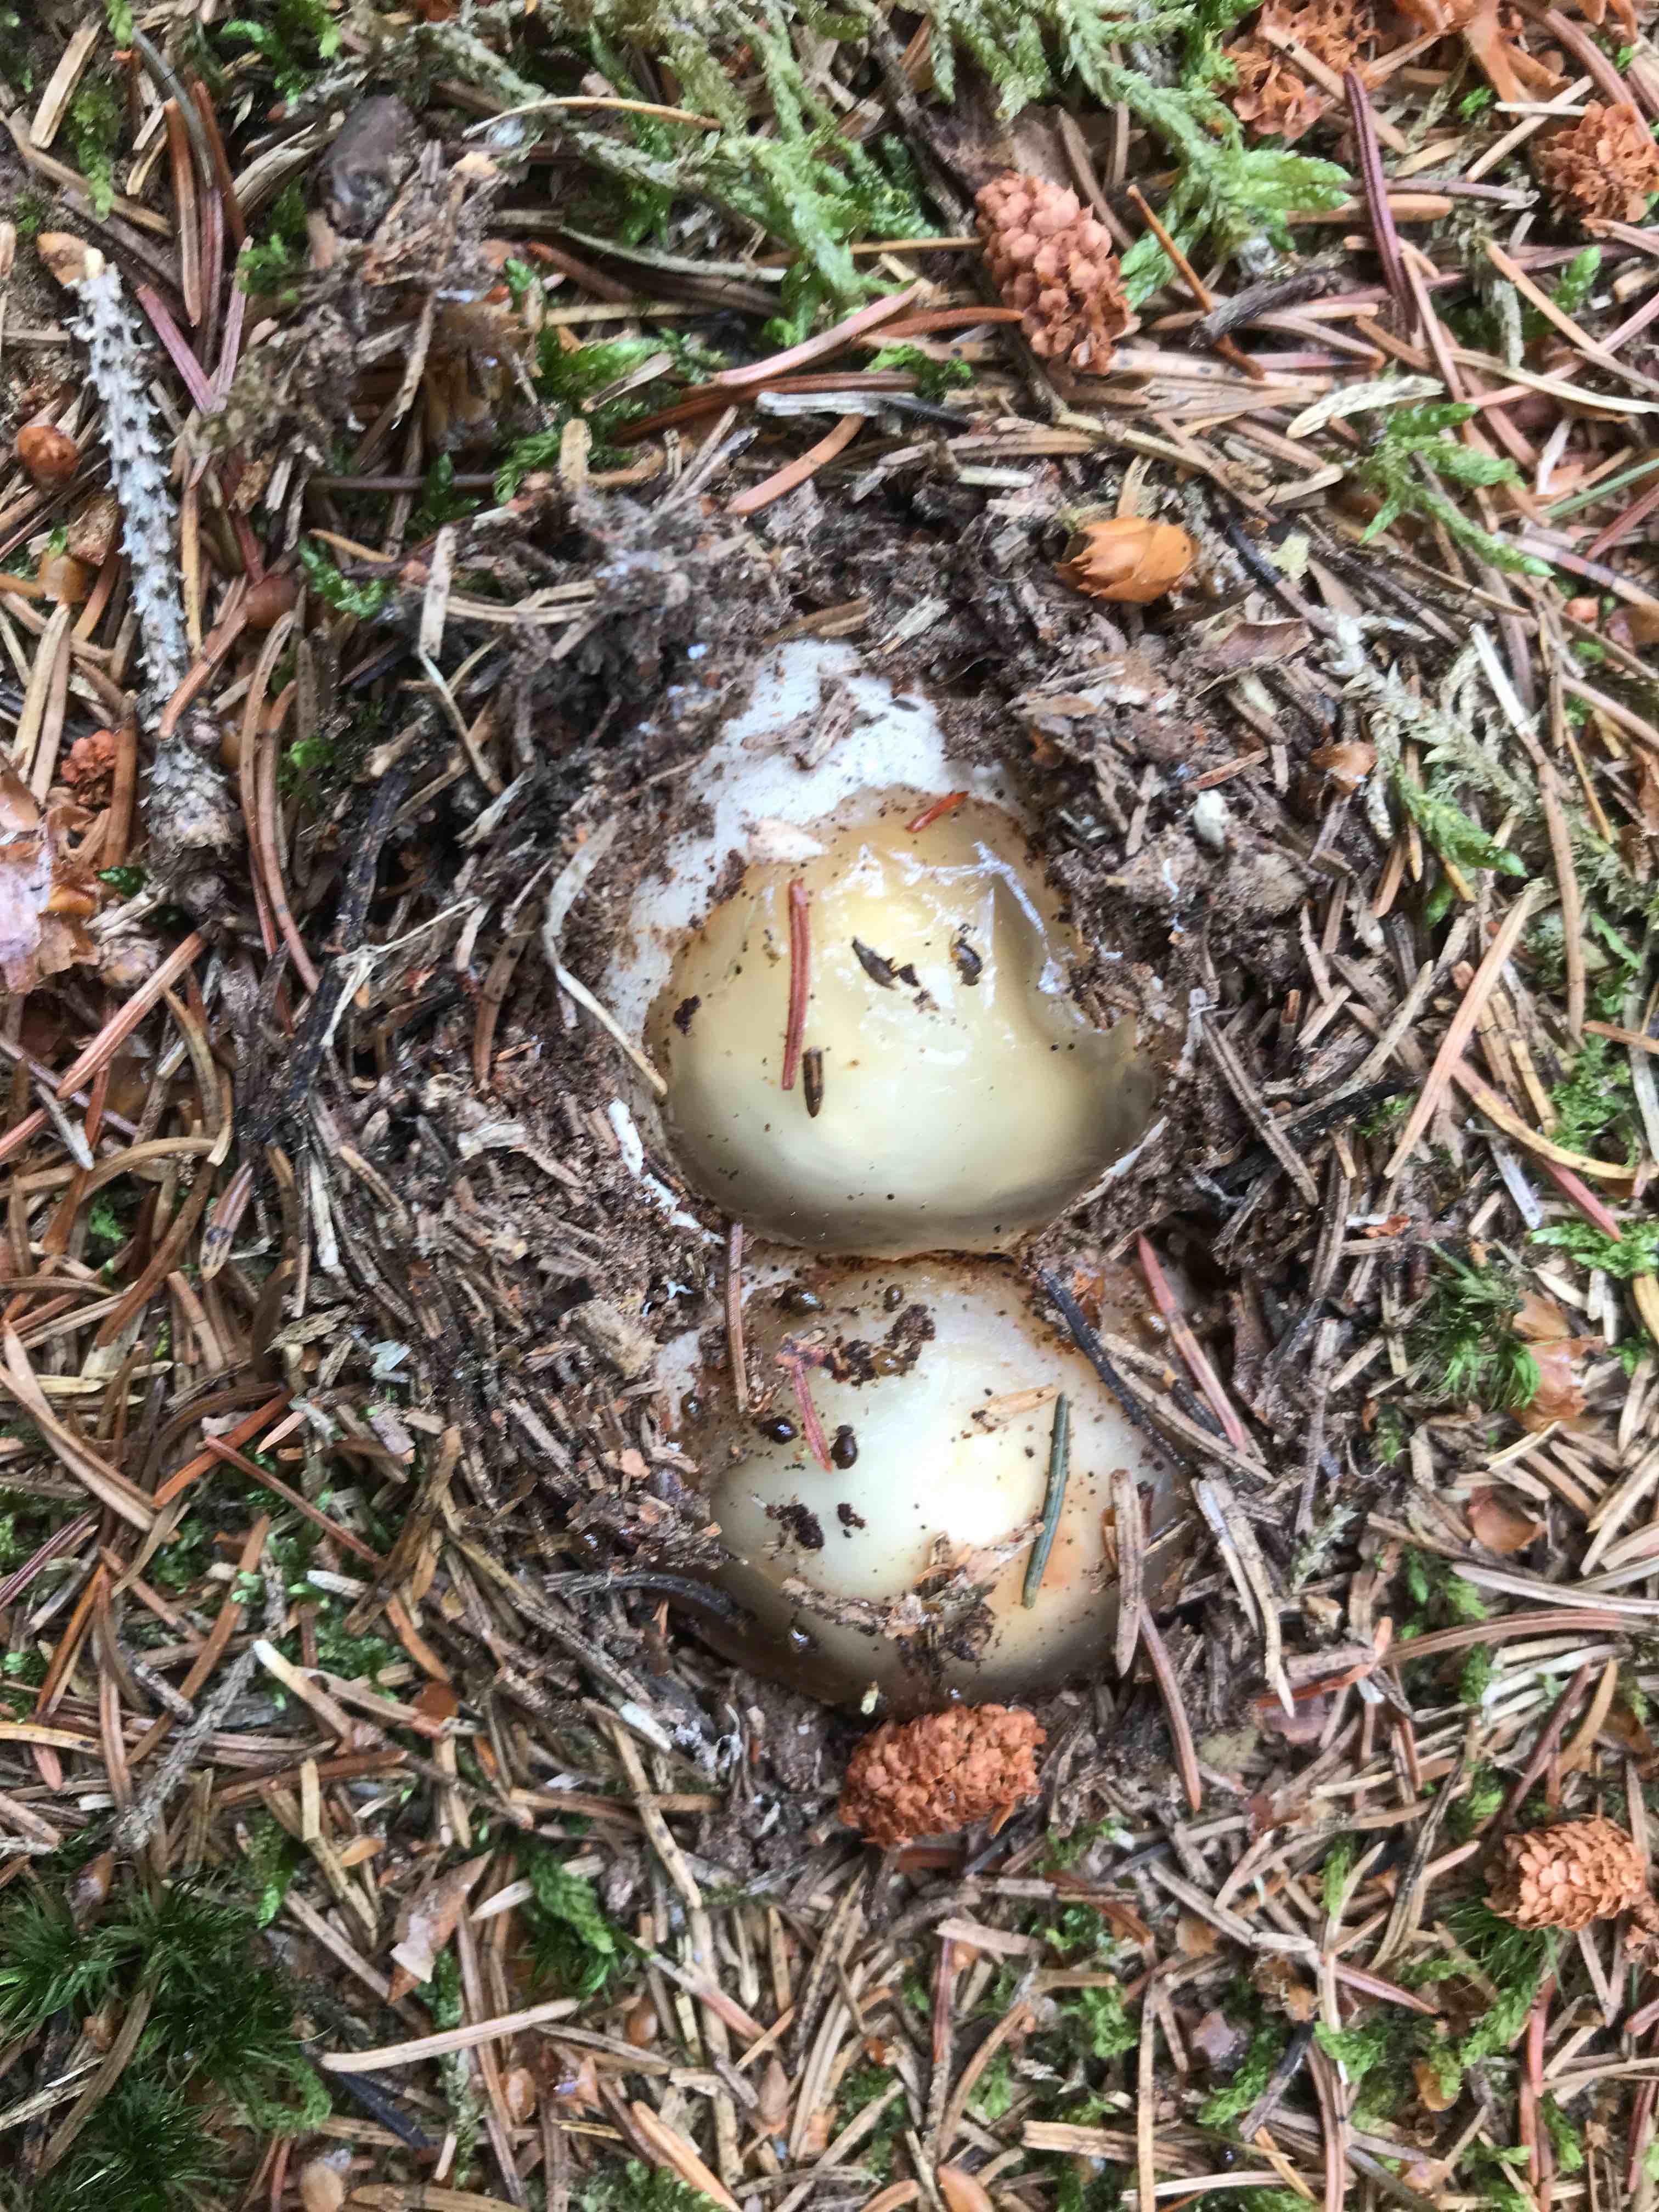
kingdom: Fungi
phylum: Basidiomycota
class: Agaricomycetes
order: Phallales
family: Phallaceae
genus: Phallus
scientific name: Phallus impudicus
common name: almindelig stinksvamp
